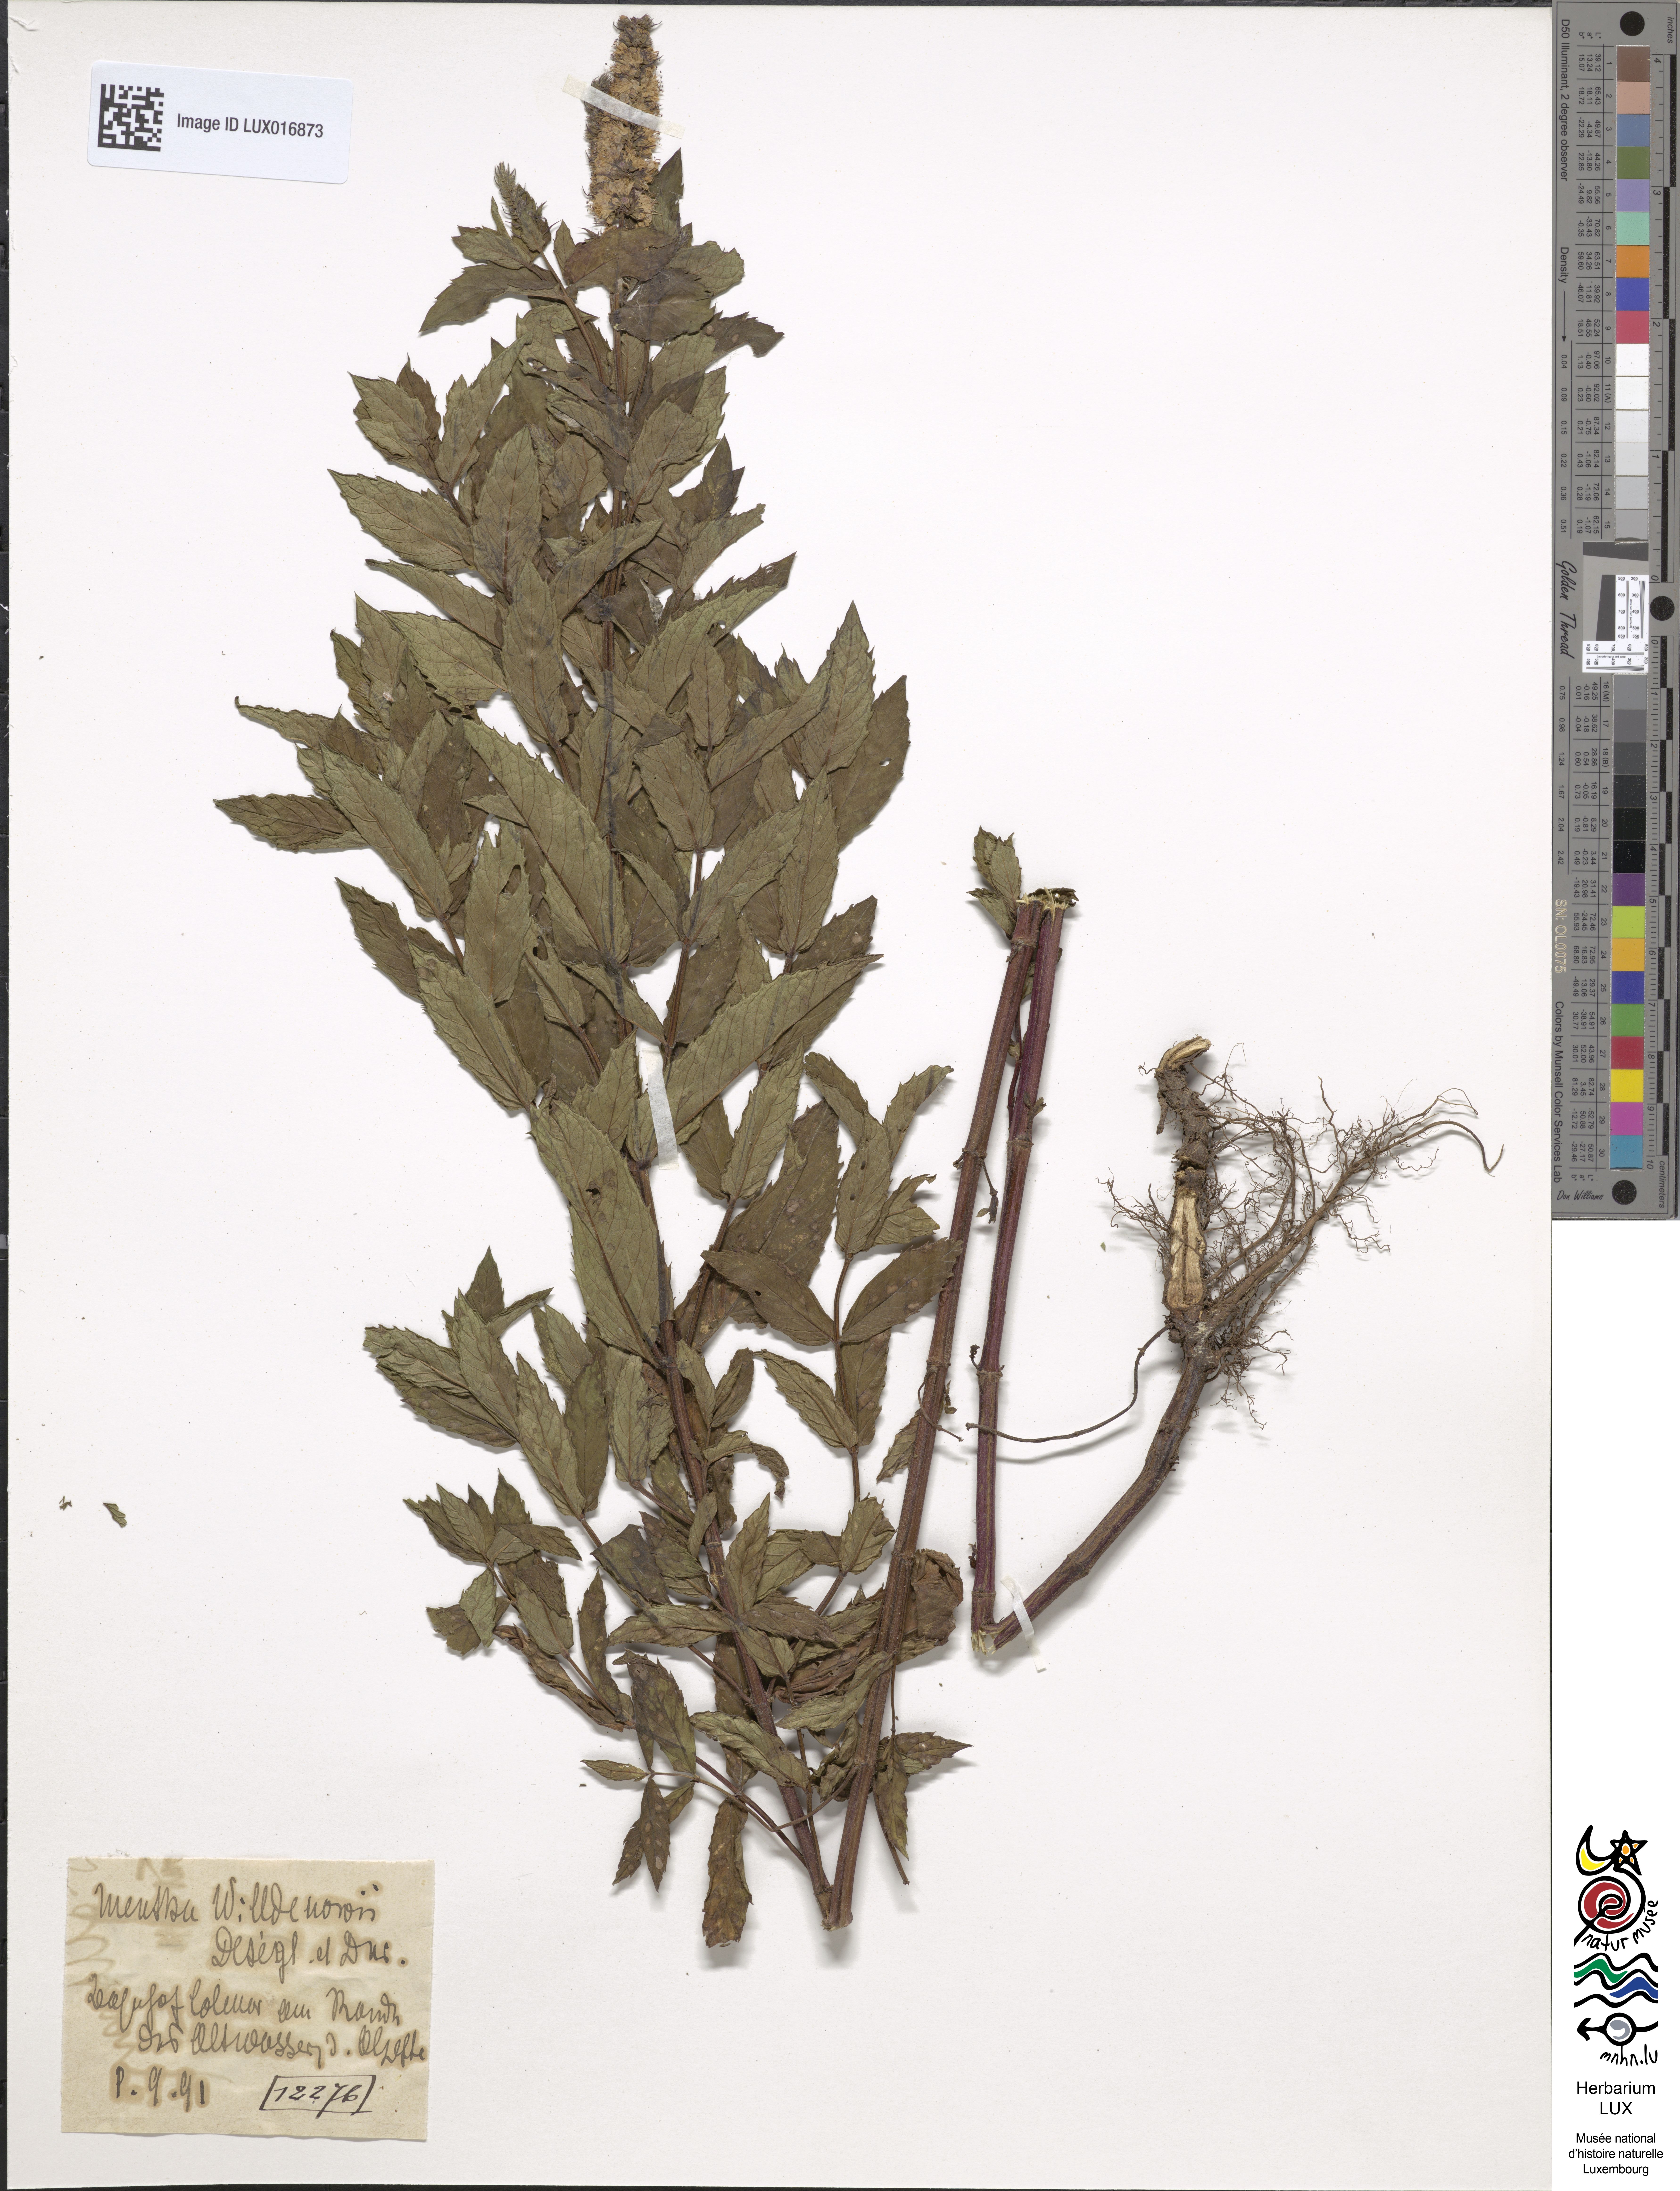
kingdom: Plantae
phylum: Tracheophyta
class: Magnoliopsida
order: Lamiales
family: Lamiaceae
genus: Mentha
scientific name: Mentha rotundifolia
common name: Bigleaf mint
